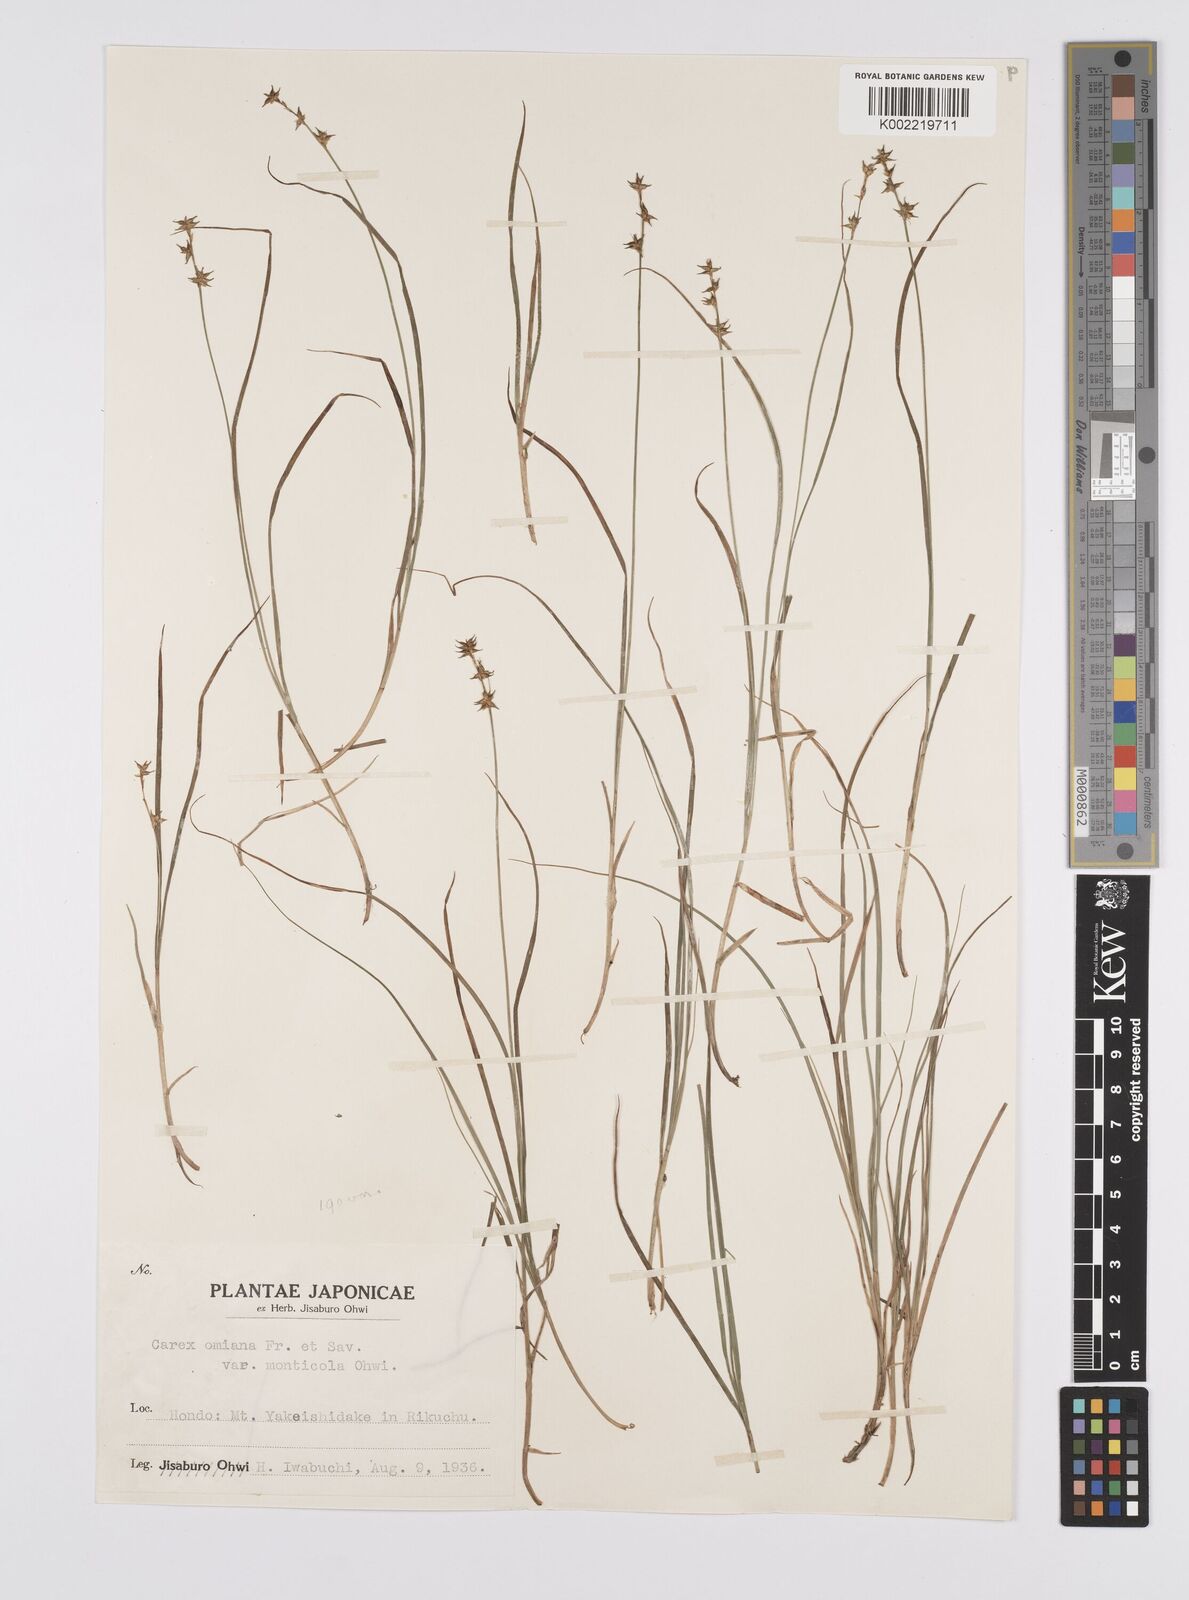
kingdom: Plantae
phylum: Tracheophyta
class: Liliopsida
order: Poales
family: Cyperaceae
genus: Carex
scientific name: Carex omiana
